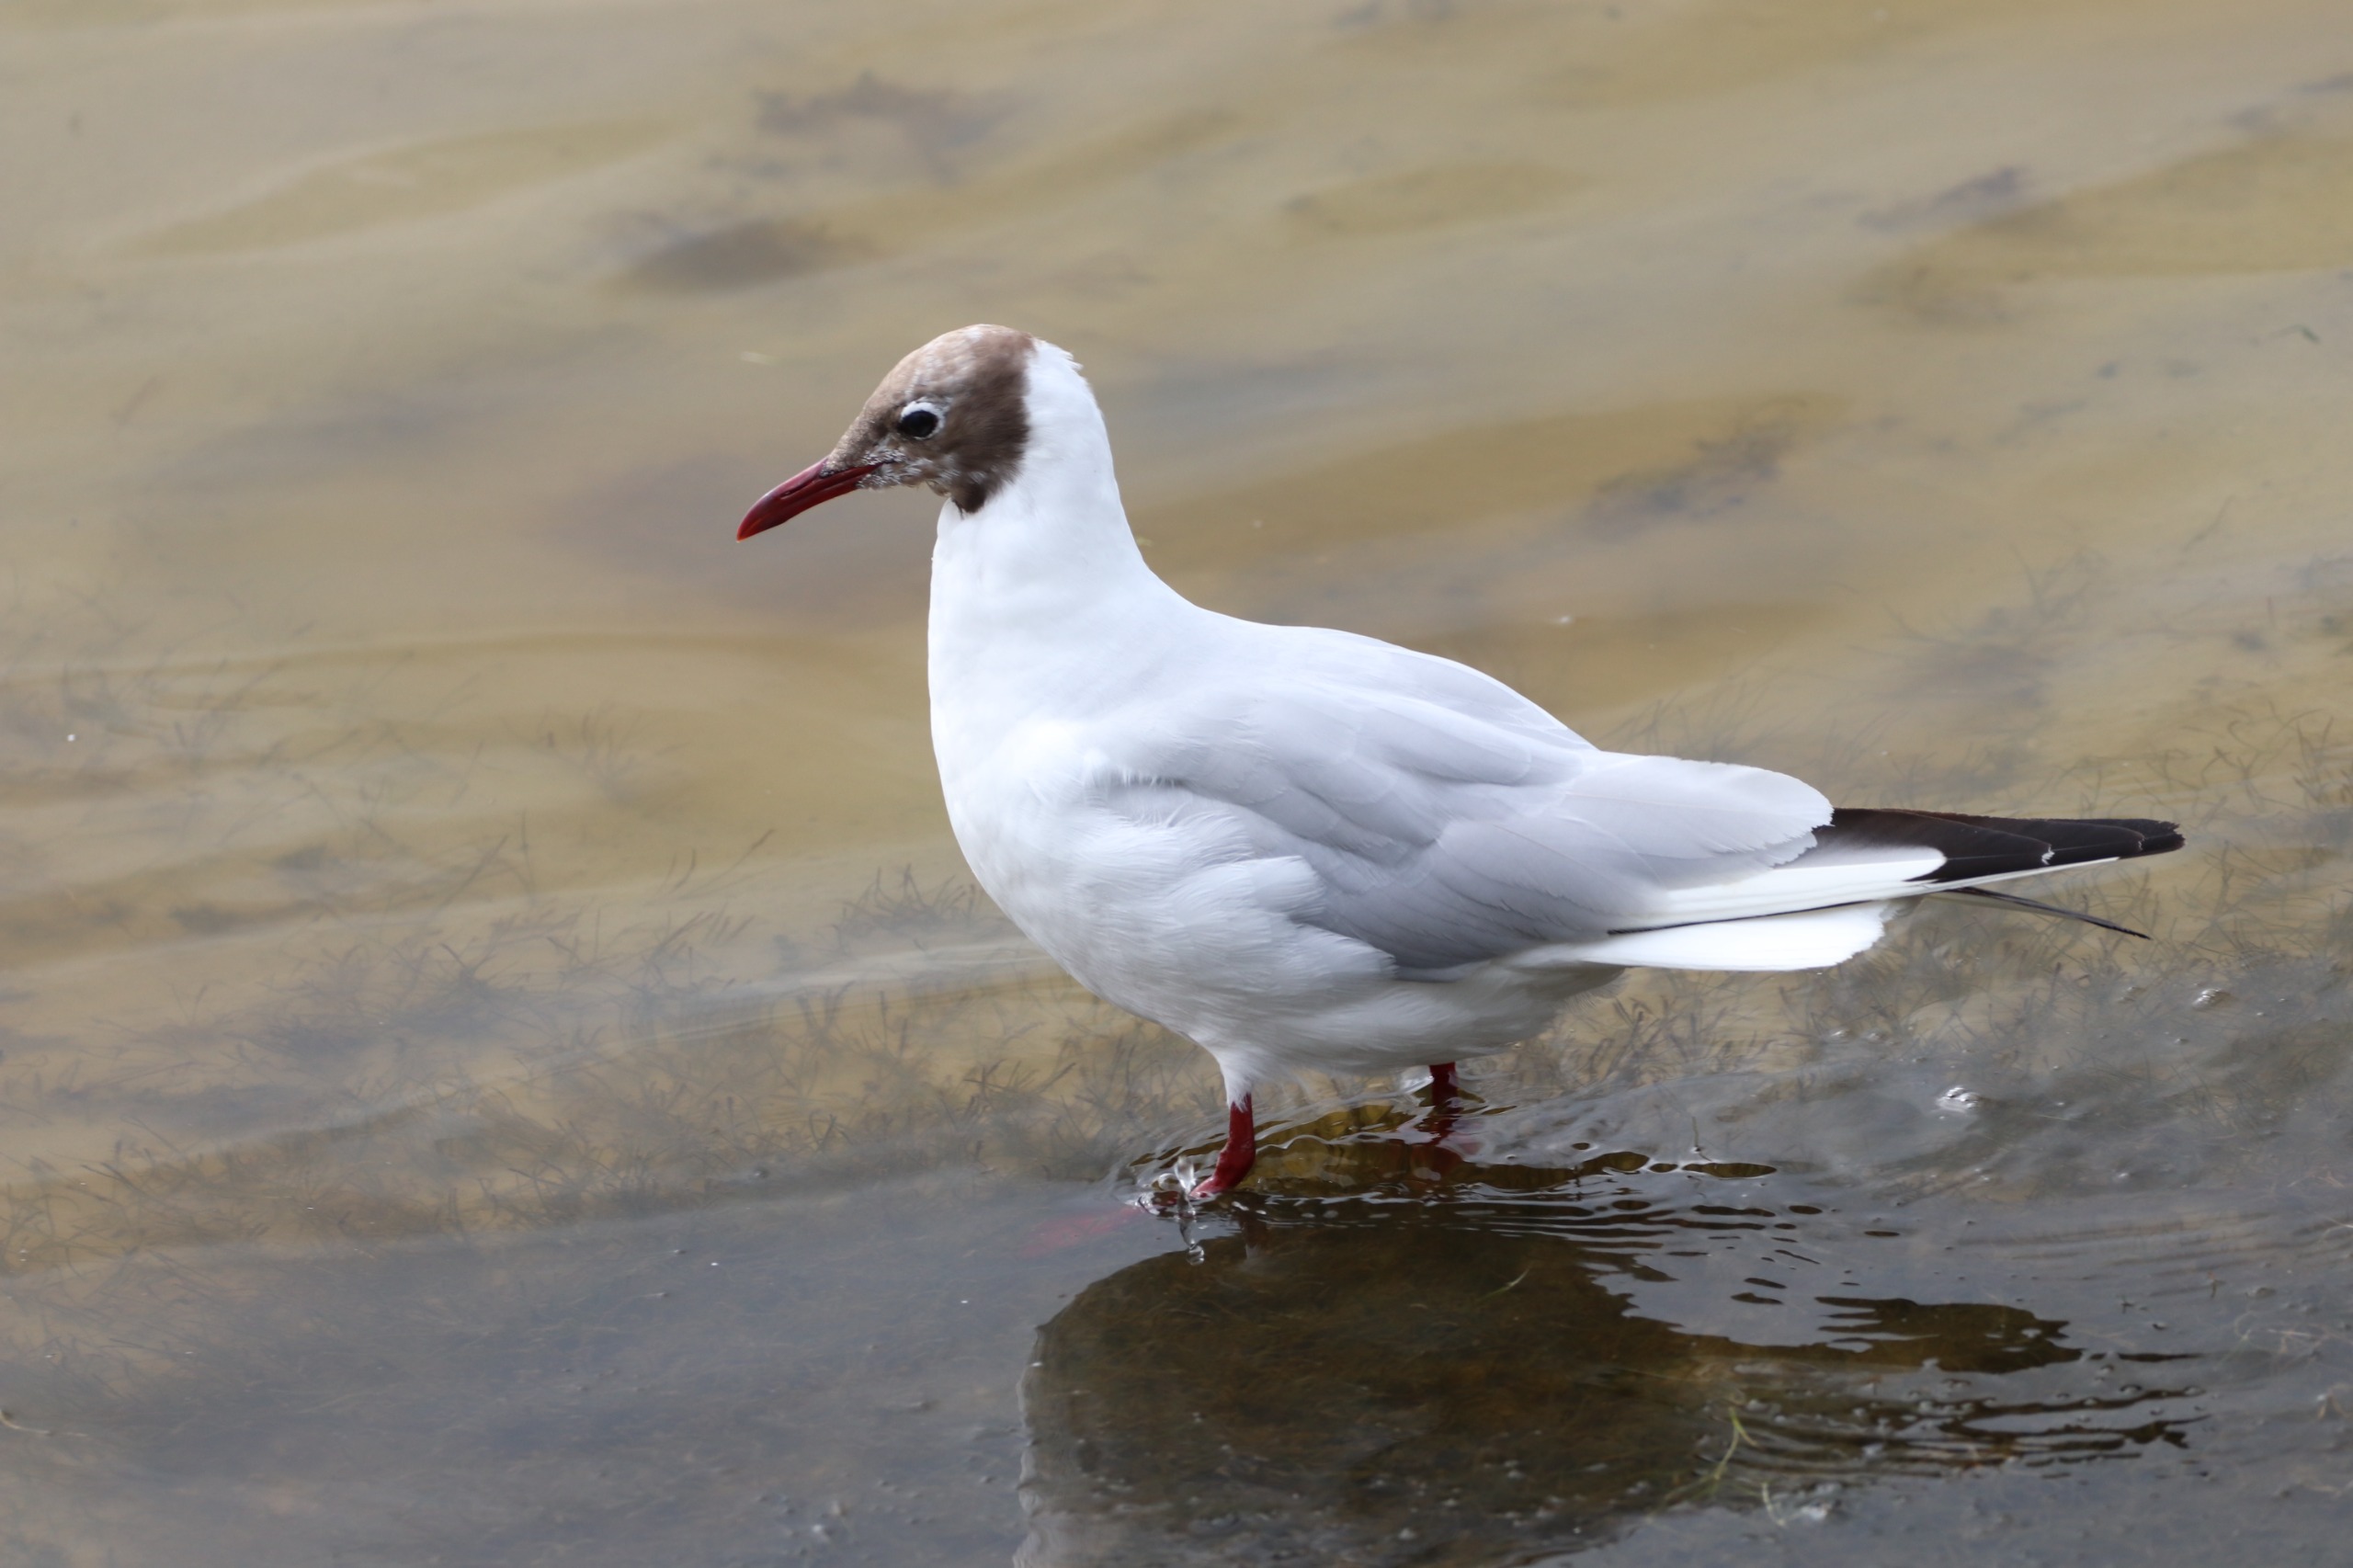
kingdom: Animalia
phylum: Chordata
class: Aves
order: Charadriiformes
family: Laridae
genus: Chroicocephalus
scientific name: Chroicocephalus ridibundus
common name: Hættemåge
